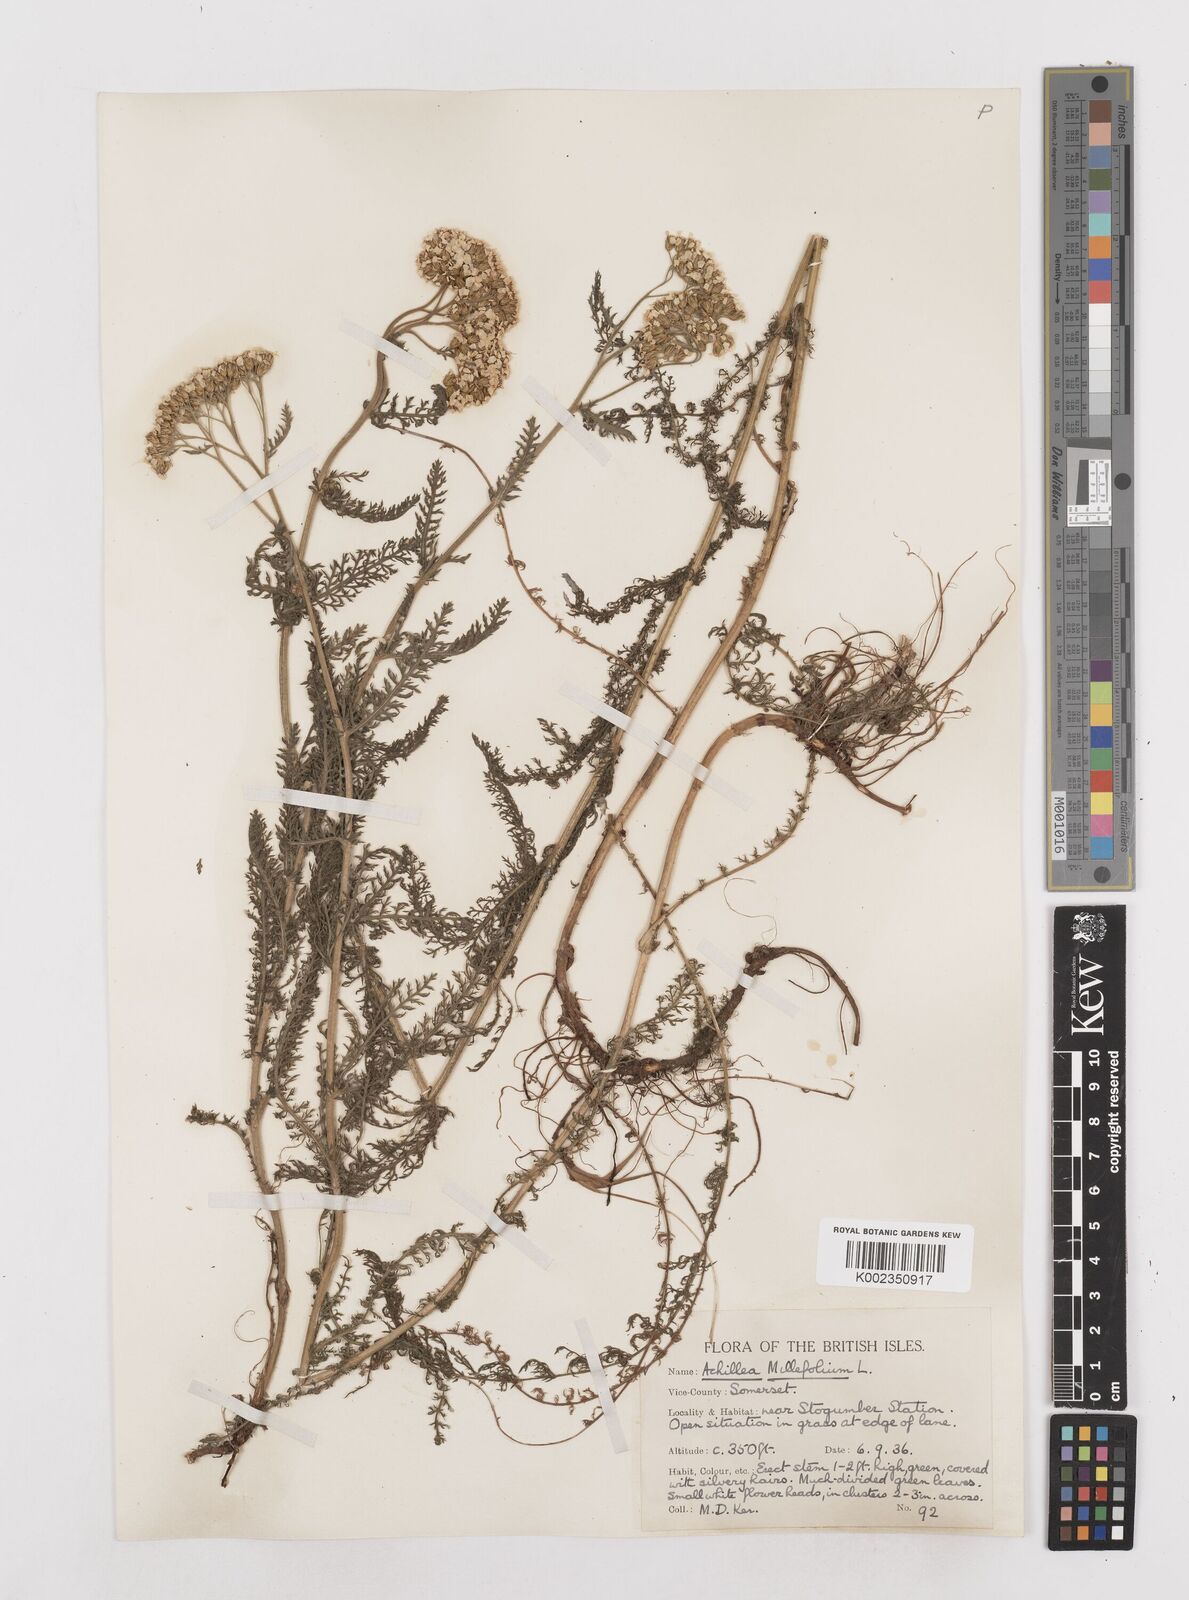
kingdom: Plantae
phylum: Tracheophyta
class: Magnoliopsida
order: Asterales
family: Asteraceae
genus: Achillea
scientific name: Achillea millefolium
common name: Yarrow
